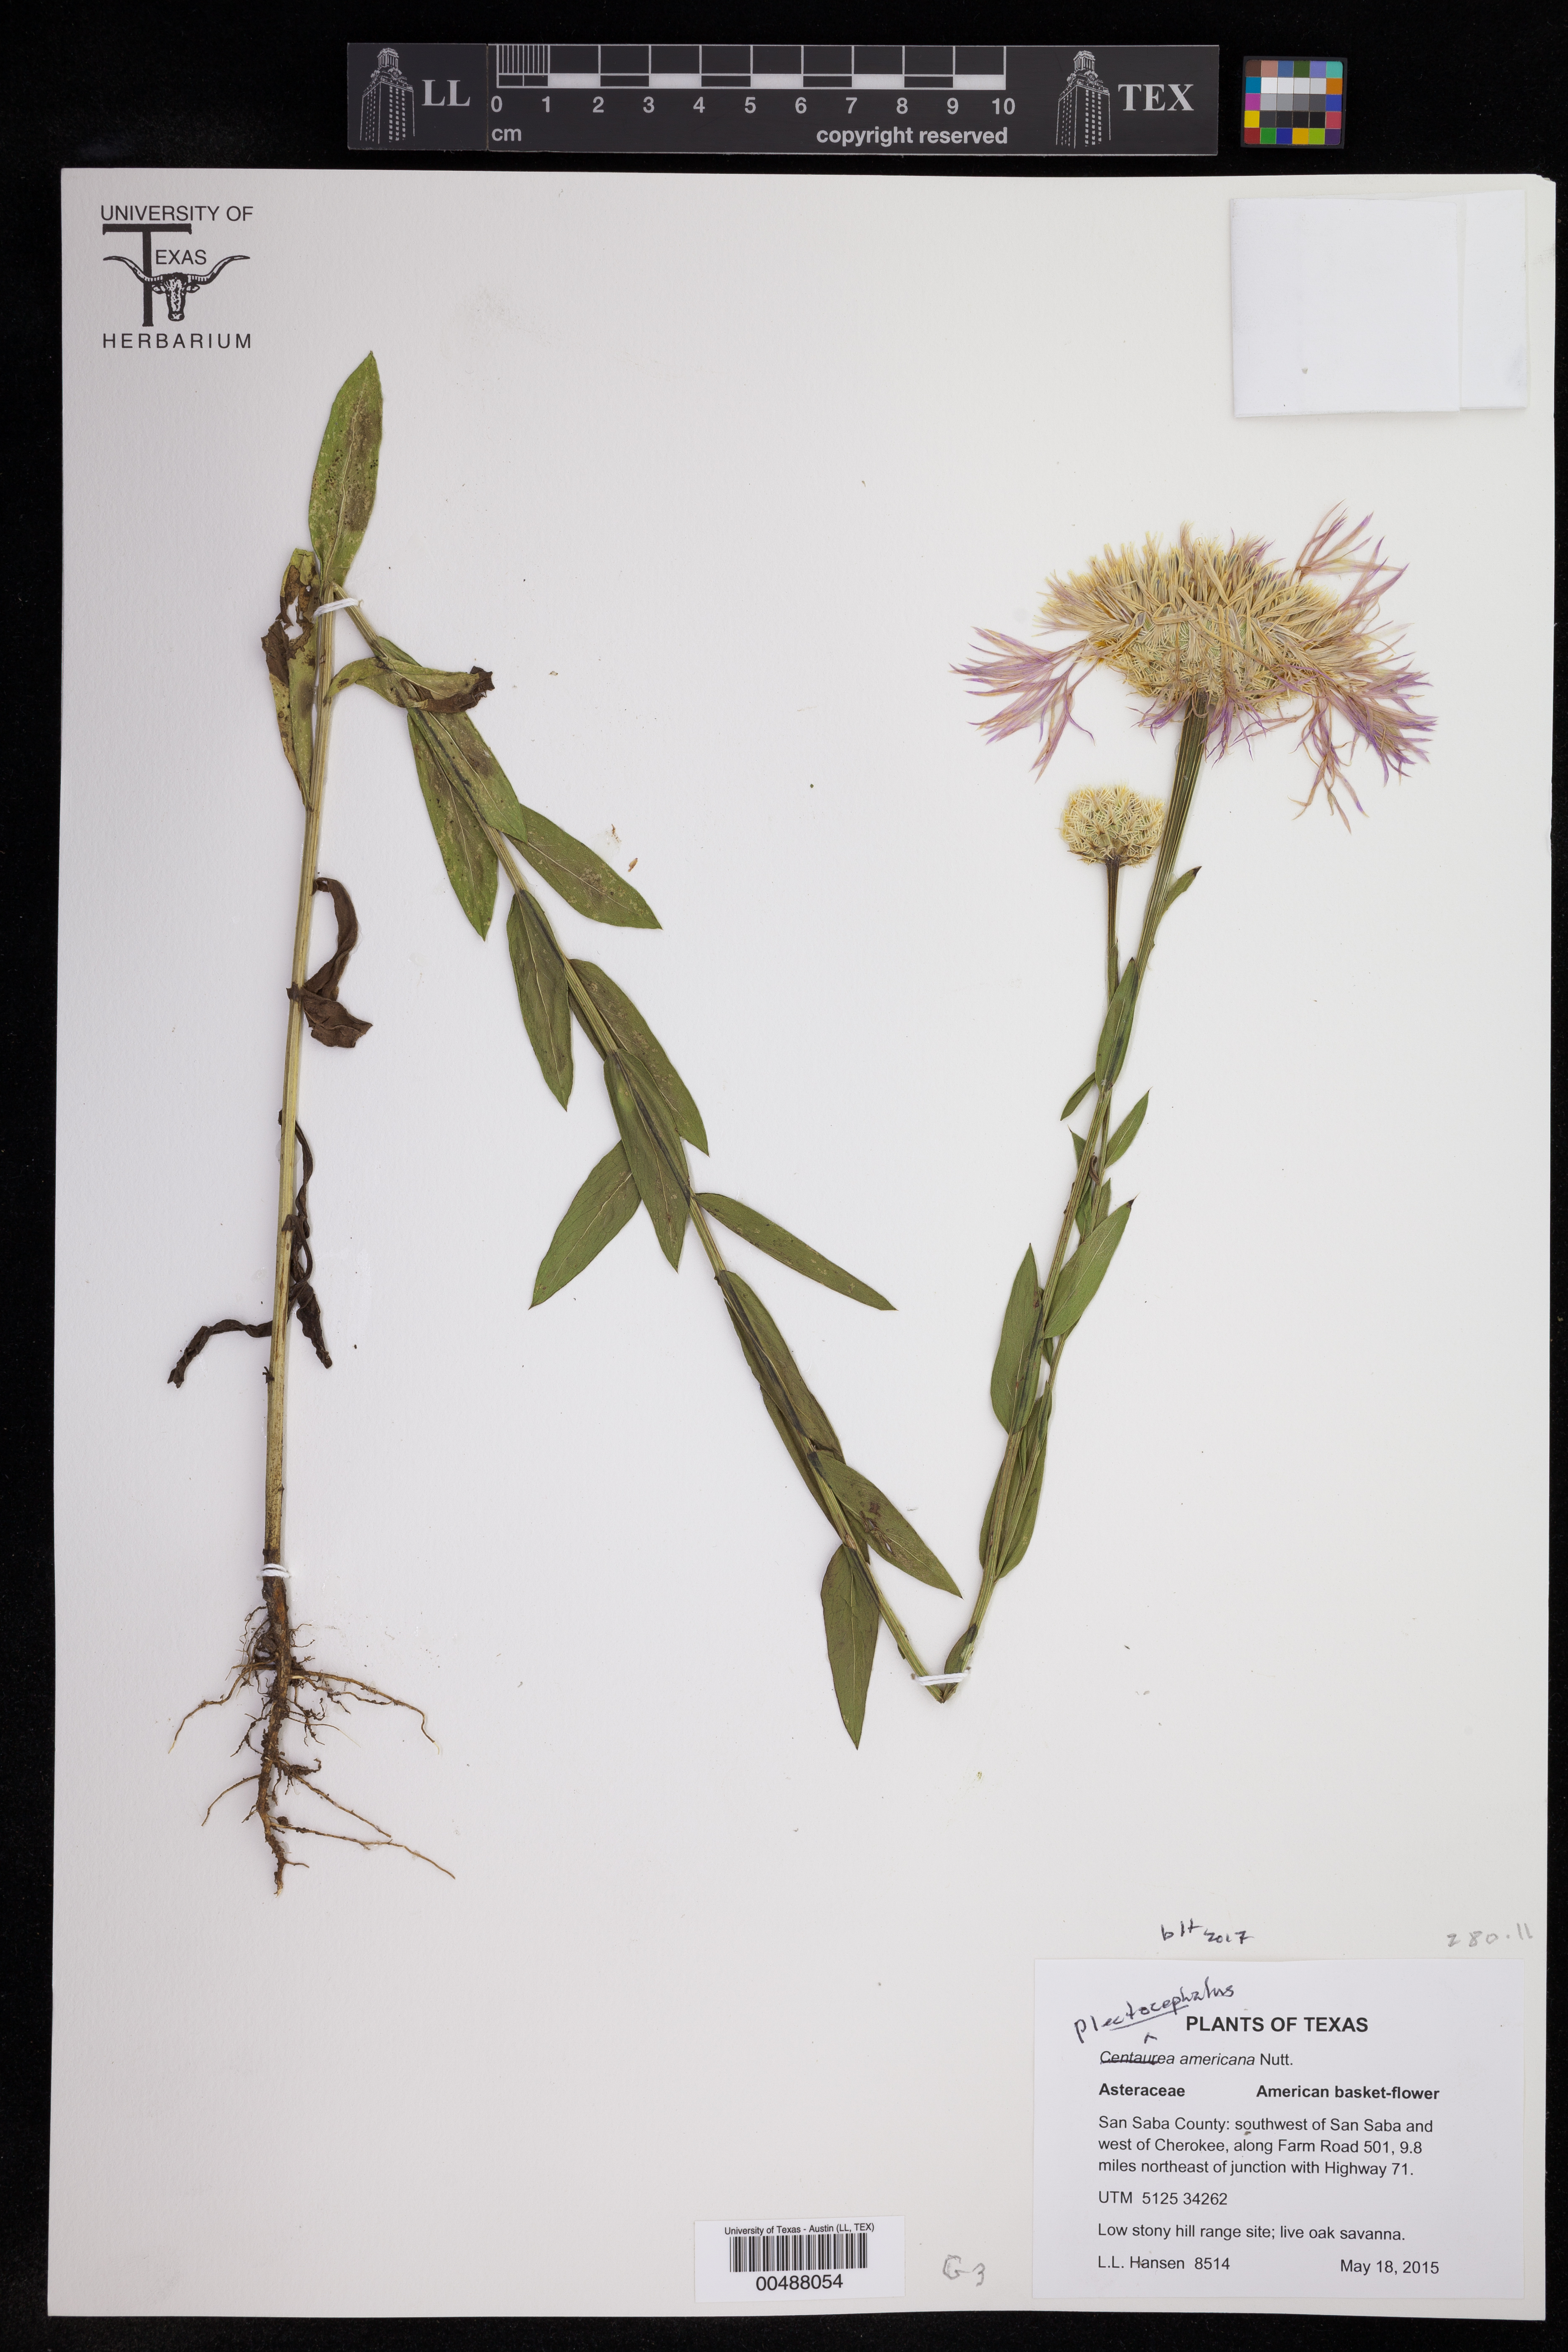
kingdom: Plantae
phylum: Tracheophyta
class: Magnoliopsida
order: Asterales
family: Asteraceae
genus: Plectocephalus
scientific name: Plectocephalus americanus
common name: American basket-flower
